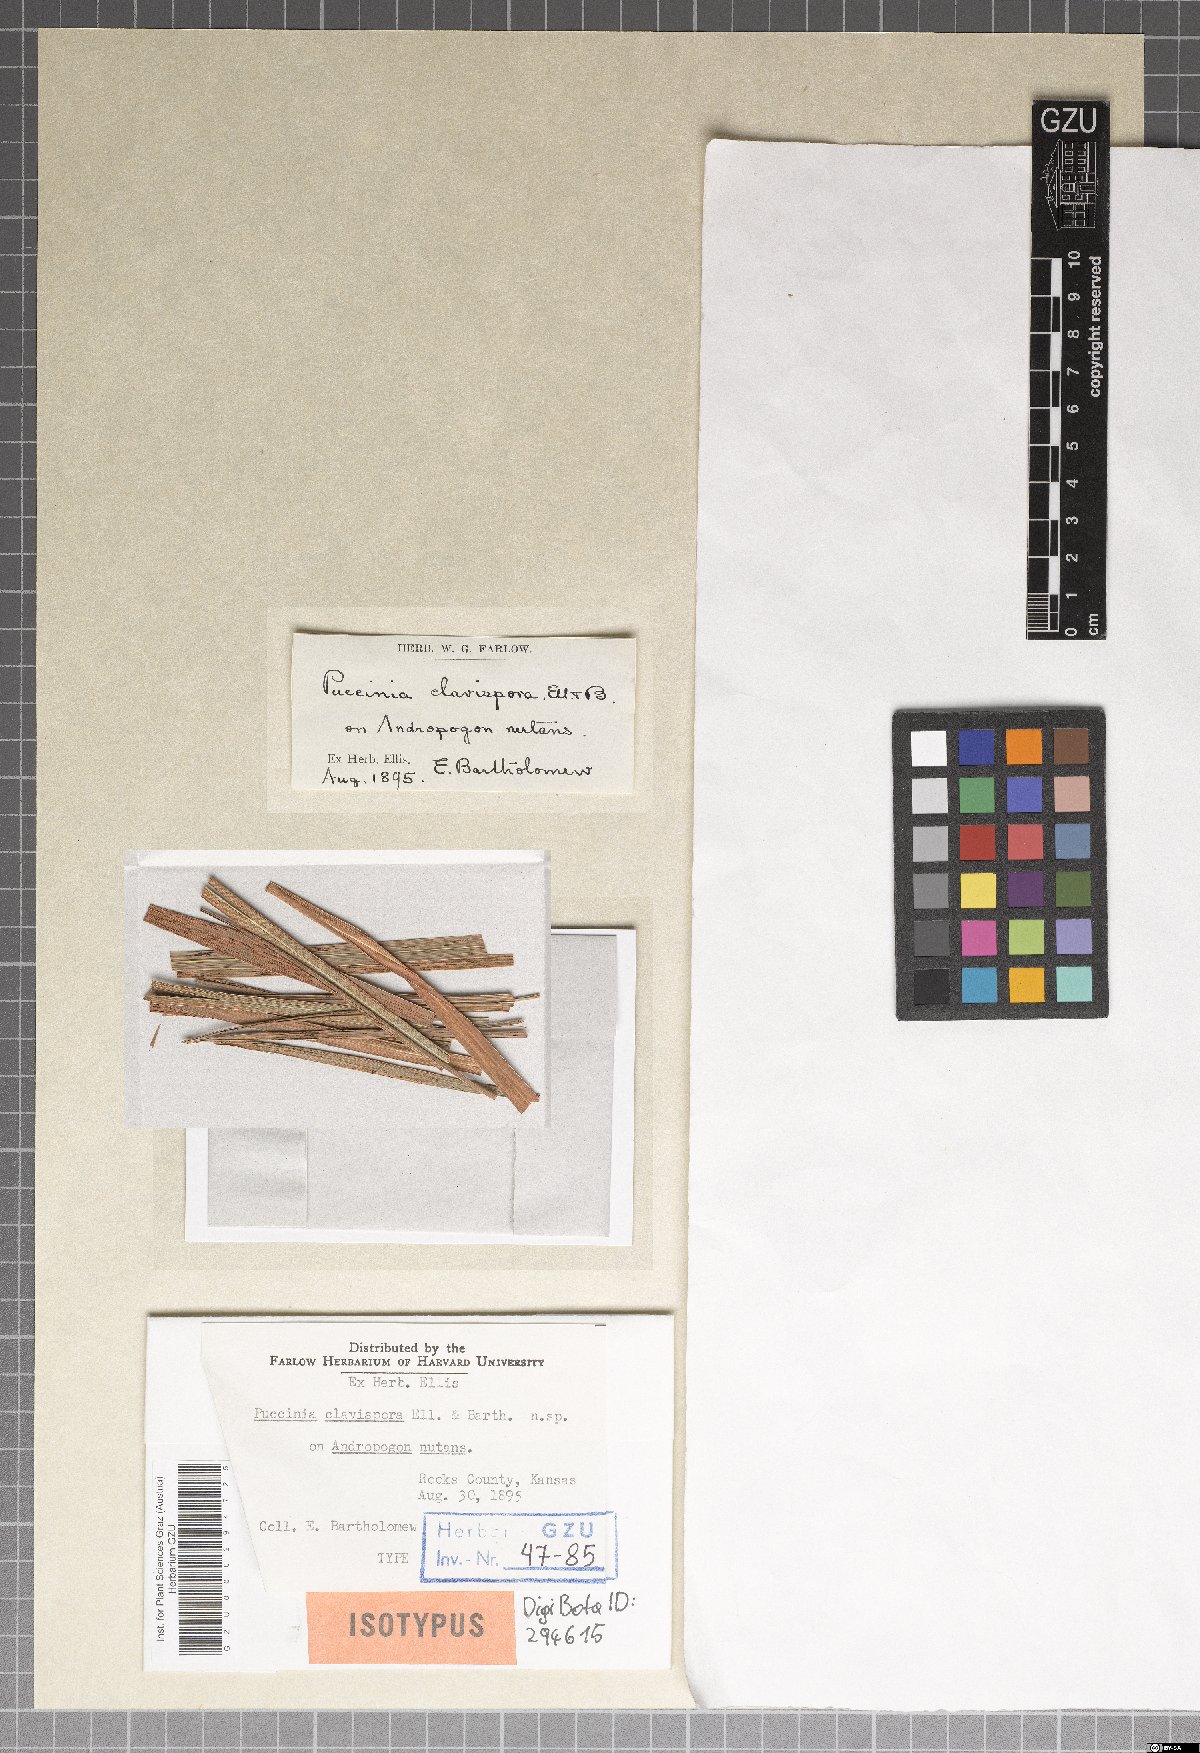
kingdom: Fungi
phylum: Basidiomycota
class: Pucciniomycetes
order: Pucciniales
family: Pucciniaceae
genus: Puccinia
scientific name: Puccinia clavispora
